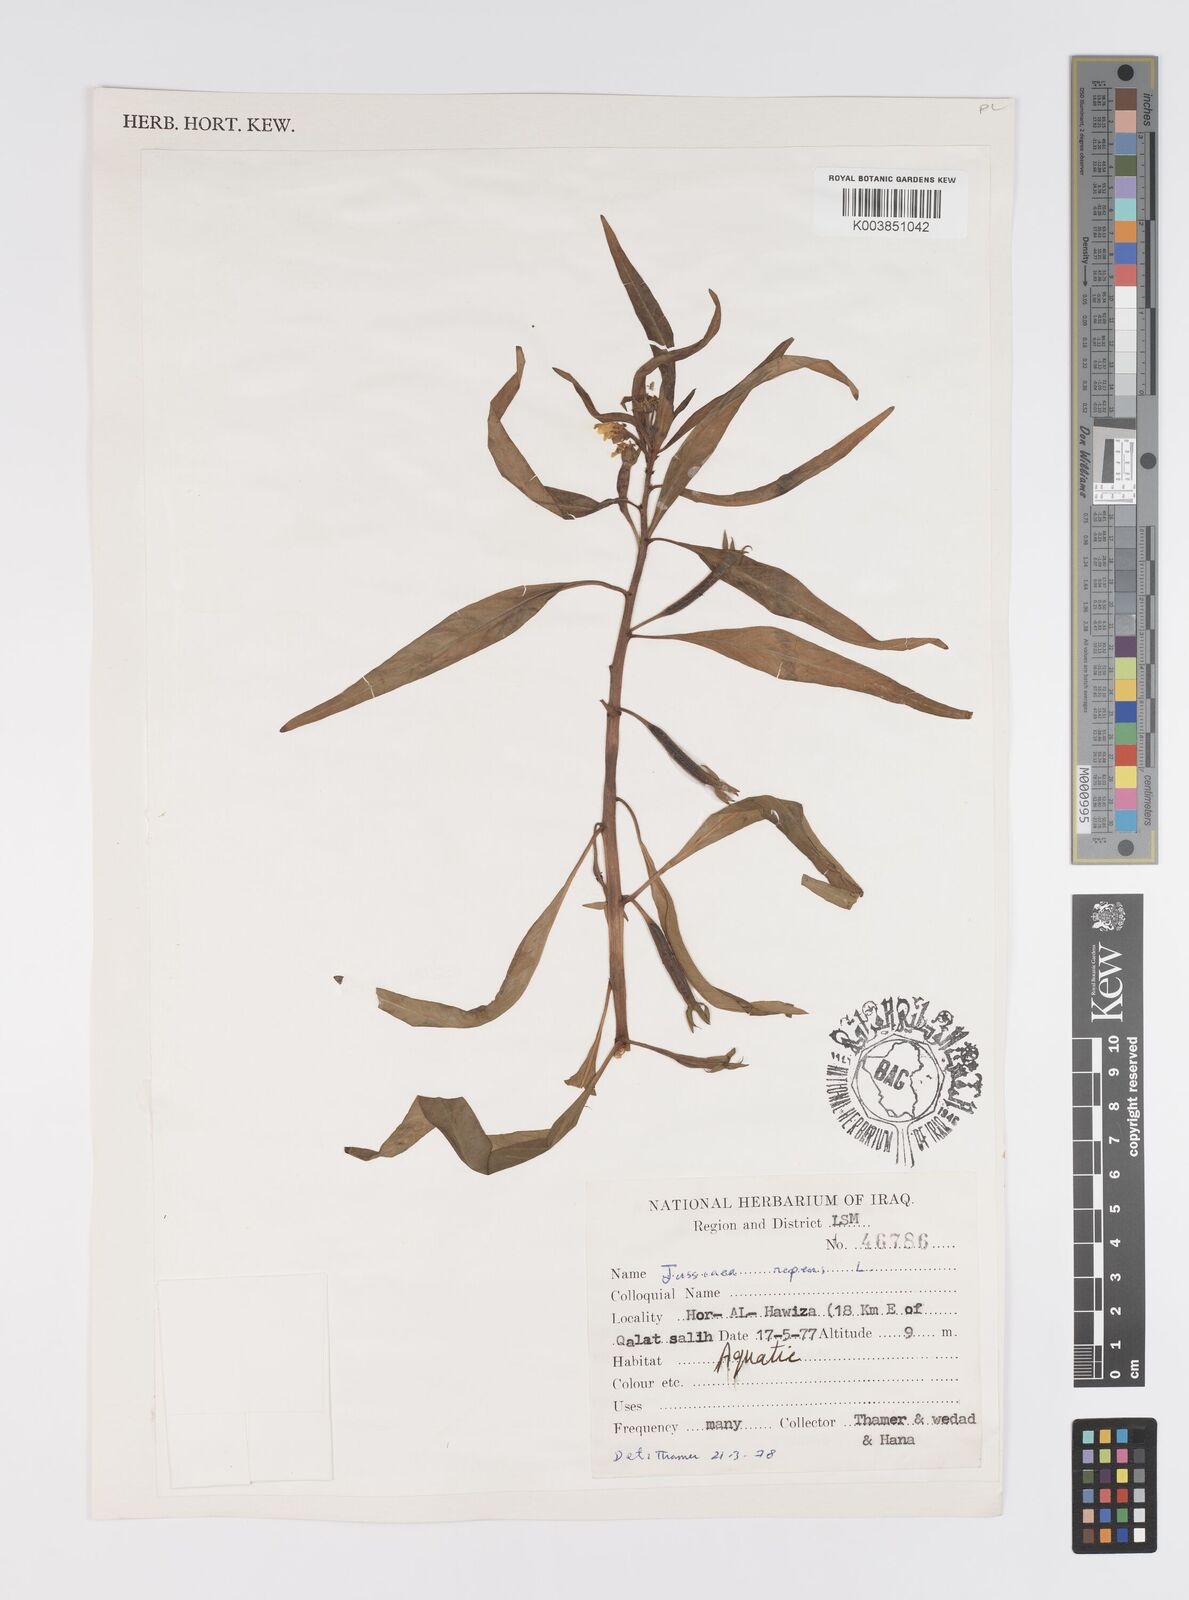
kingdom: Plantae
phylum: Tracheophyta
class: Magnoliopsida
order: Myrtales
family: Onagraceae
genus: Ludwigia
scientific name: Ludwigia adscendens
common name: Creeping water primrose
